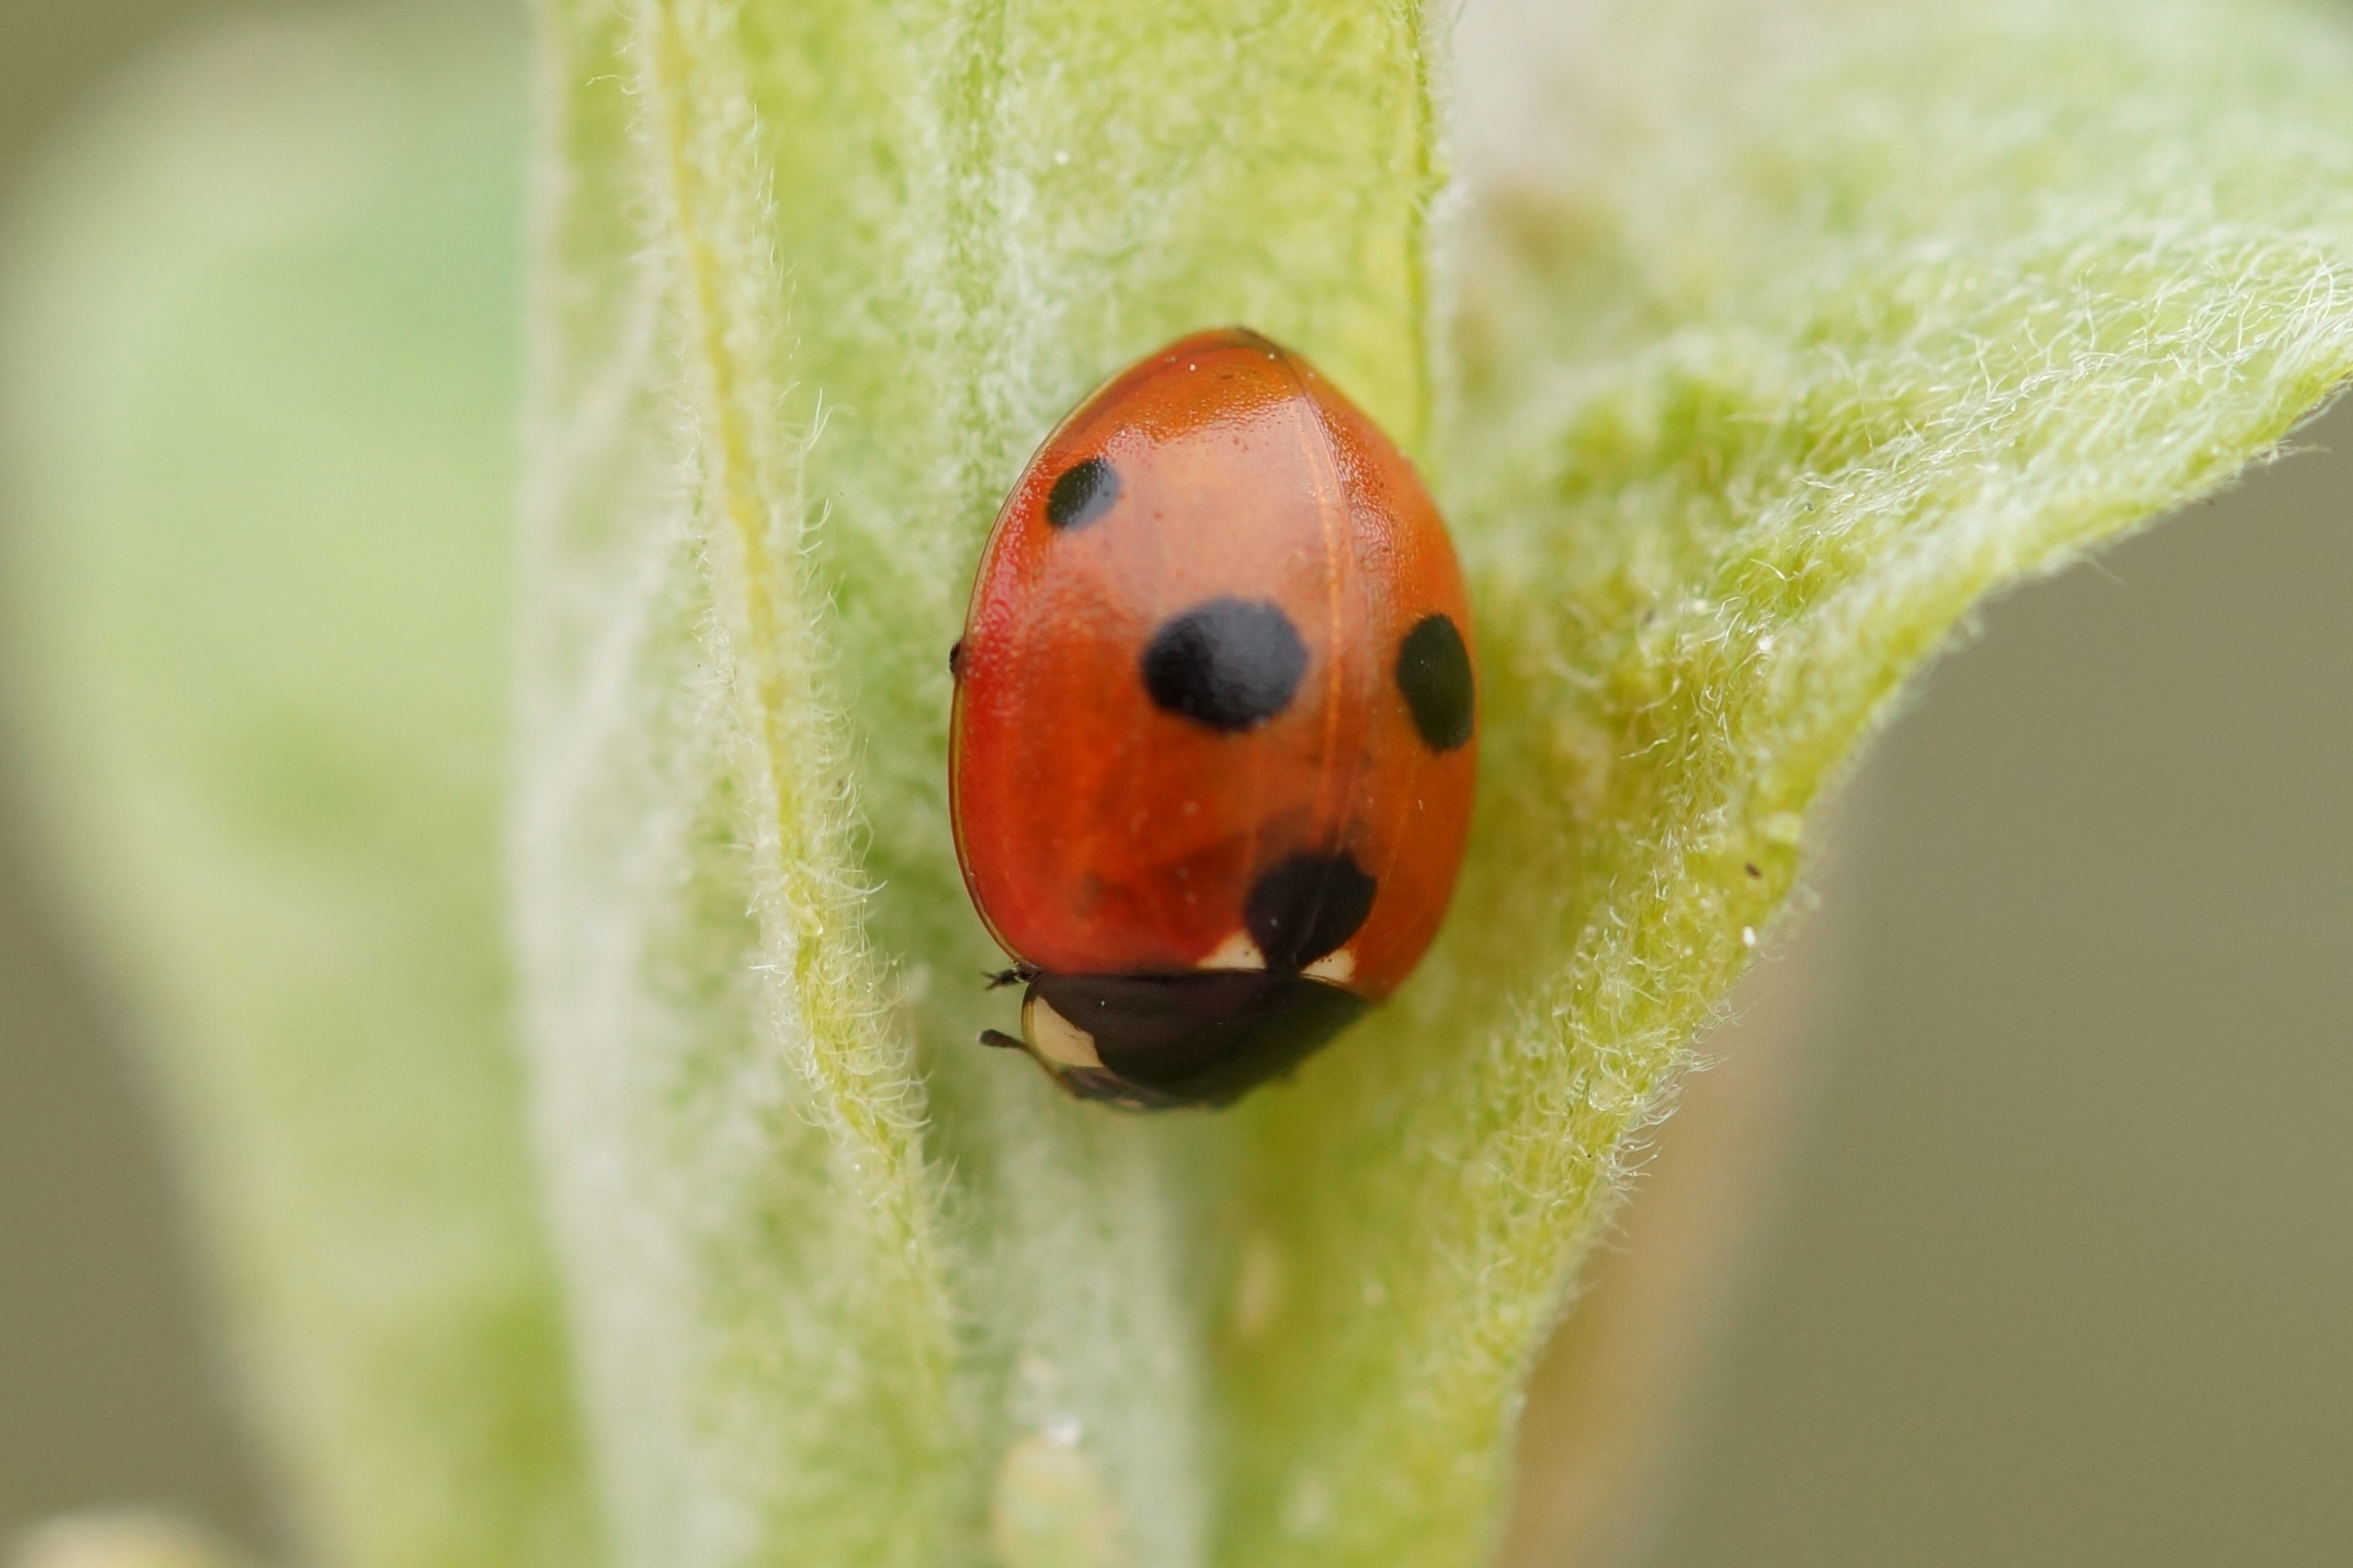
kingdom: Animalia
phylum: Arthropoda
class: Insecta
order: Coleoptera
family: Coccinellidae
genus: Coccinella
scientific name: Coccinella quinquepunctata
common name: Femplettet mariehøne
